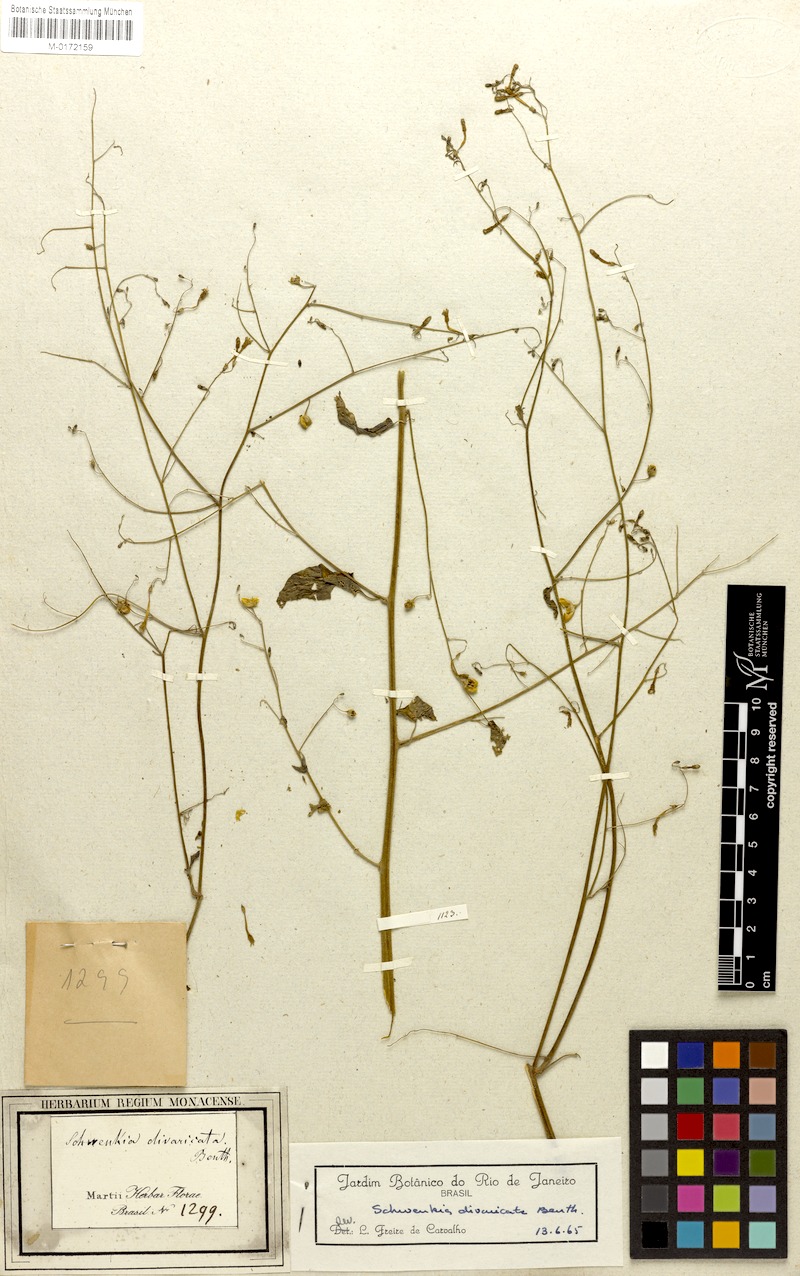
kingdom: Plantae
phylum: Tracheophyta
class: Magnoliopsida
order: Solanales
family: Solanaceae
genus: Schwenckia
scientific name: Schwenckia paniculata
